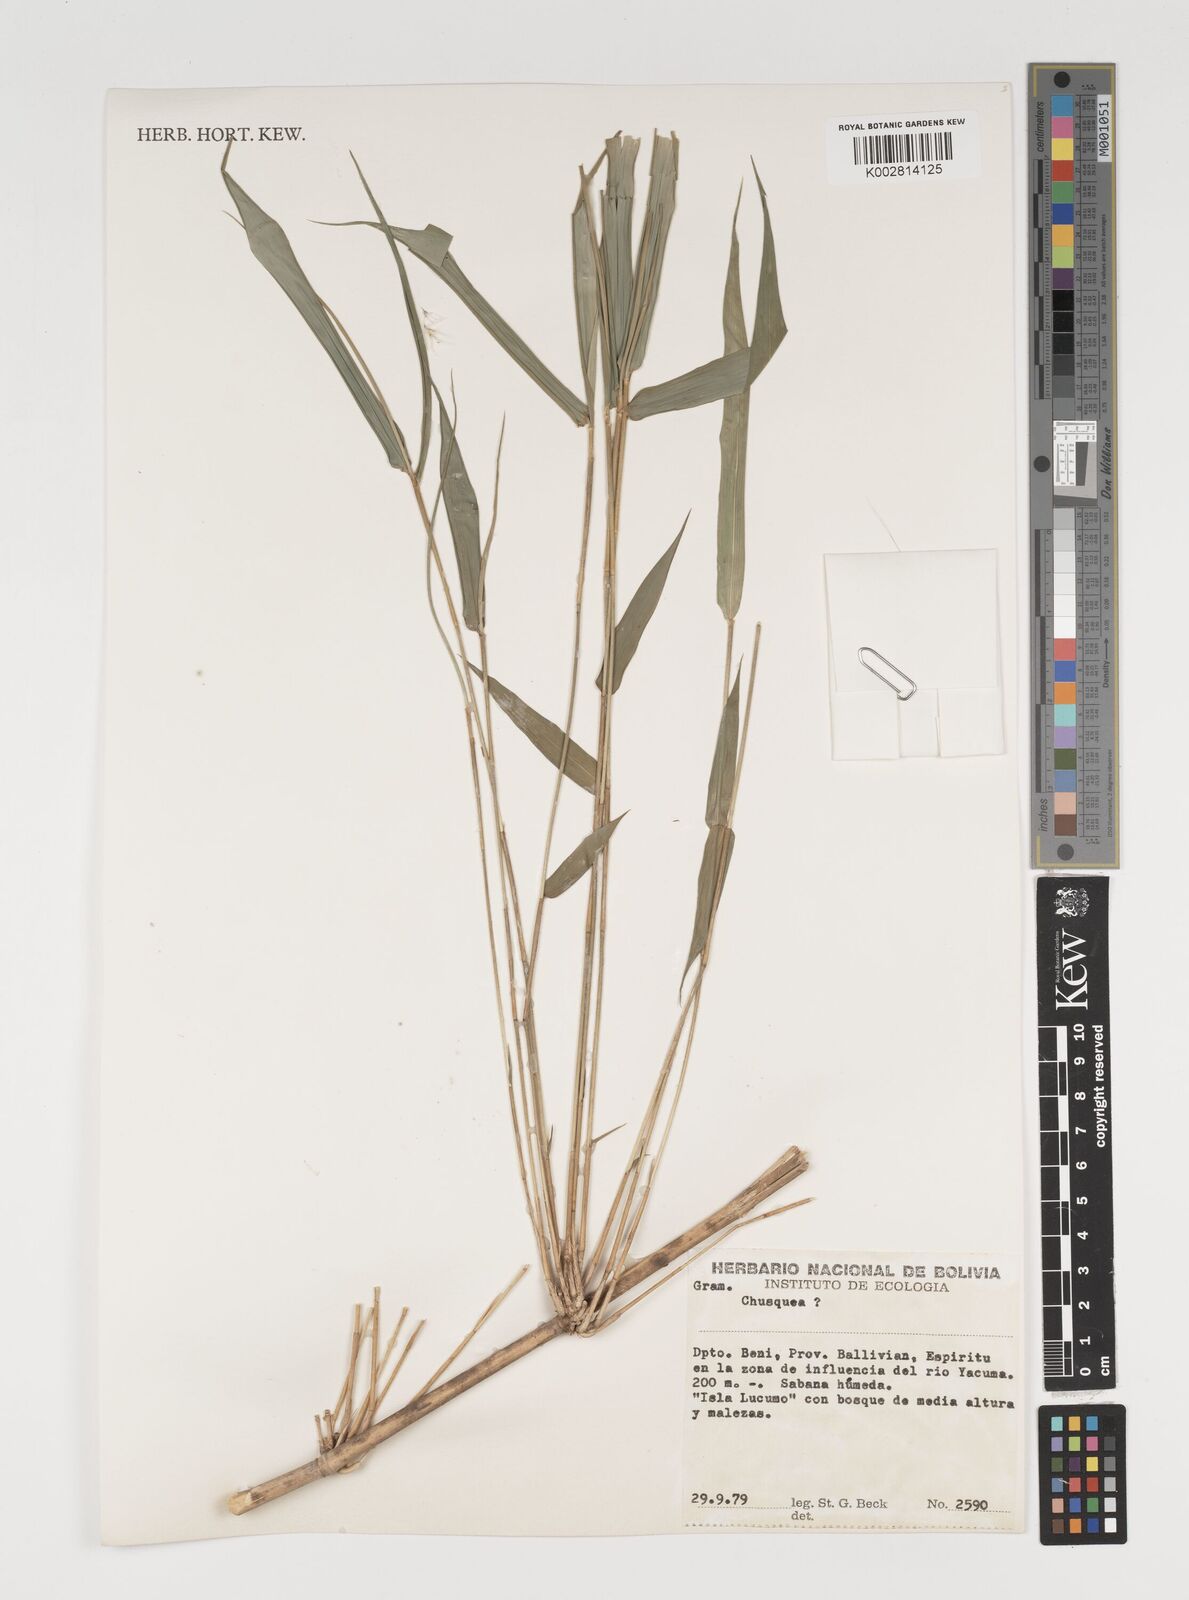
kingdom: Plantae
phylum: Tracheophyta
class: Liliopsida
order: Poales
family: Poaceae
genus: Chusquea
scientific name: Chusquea
